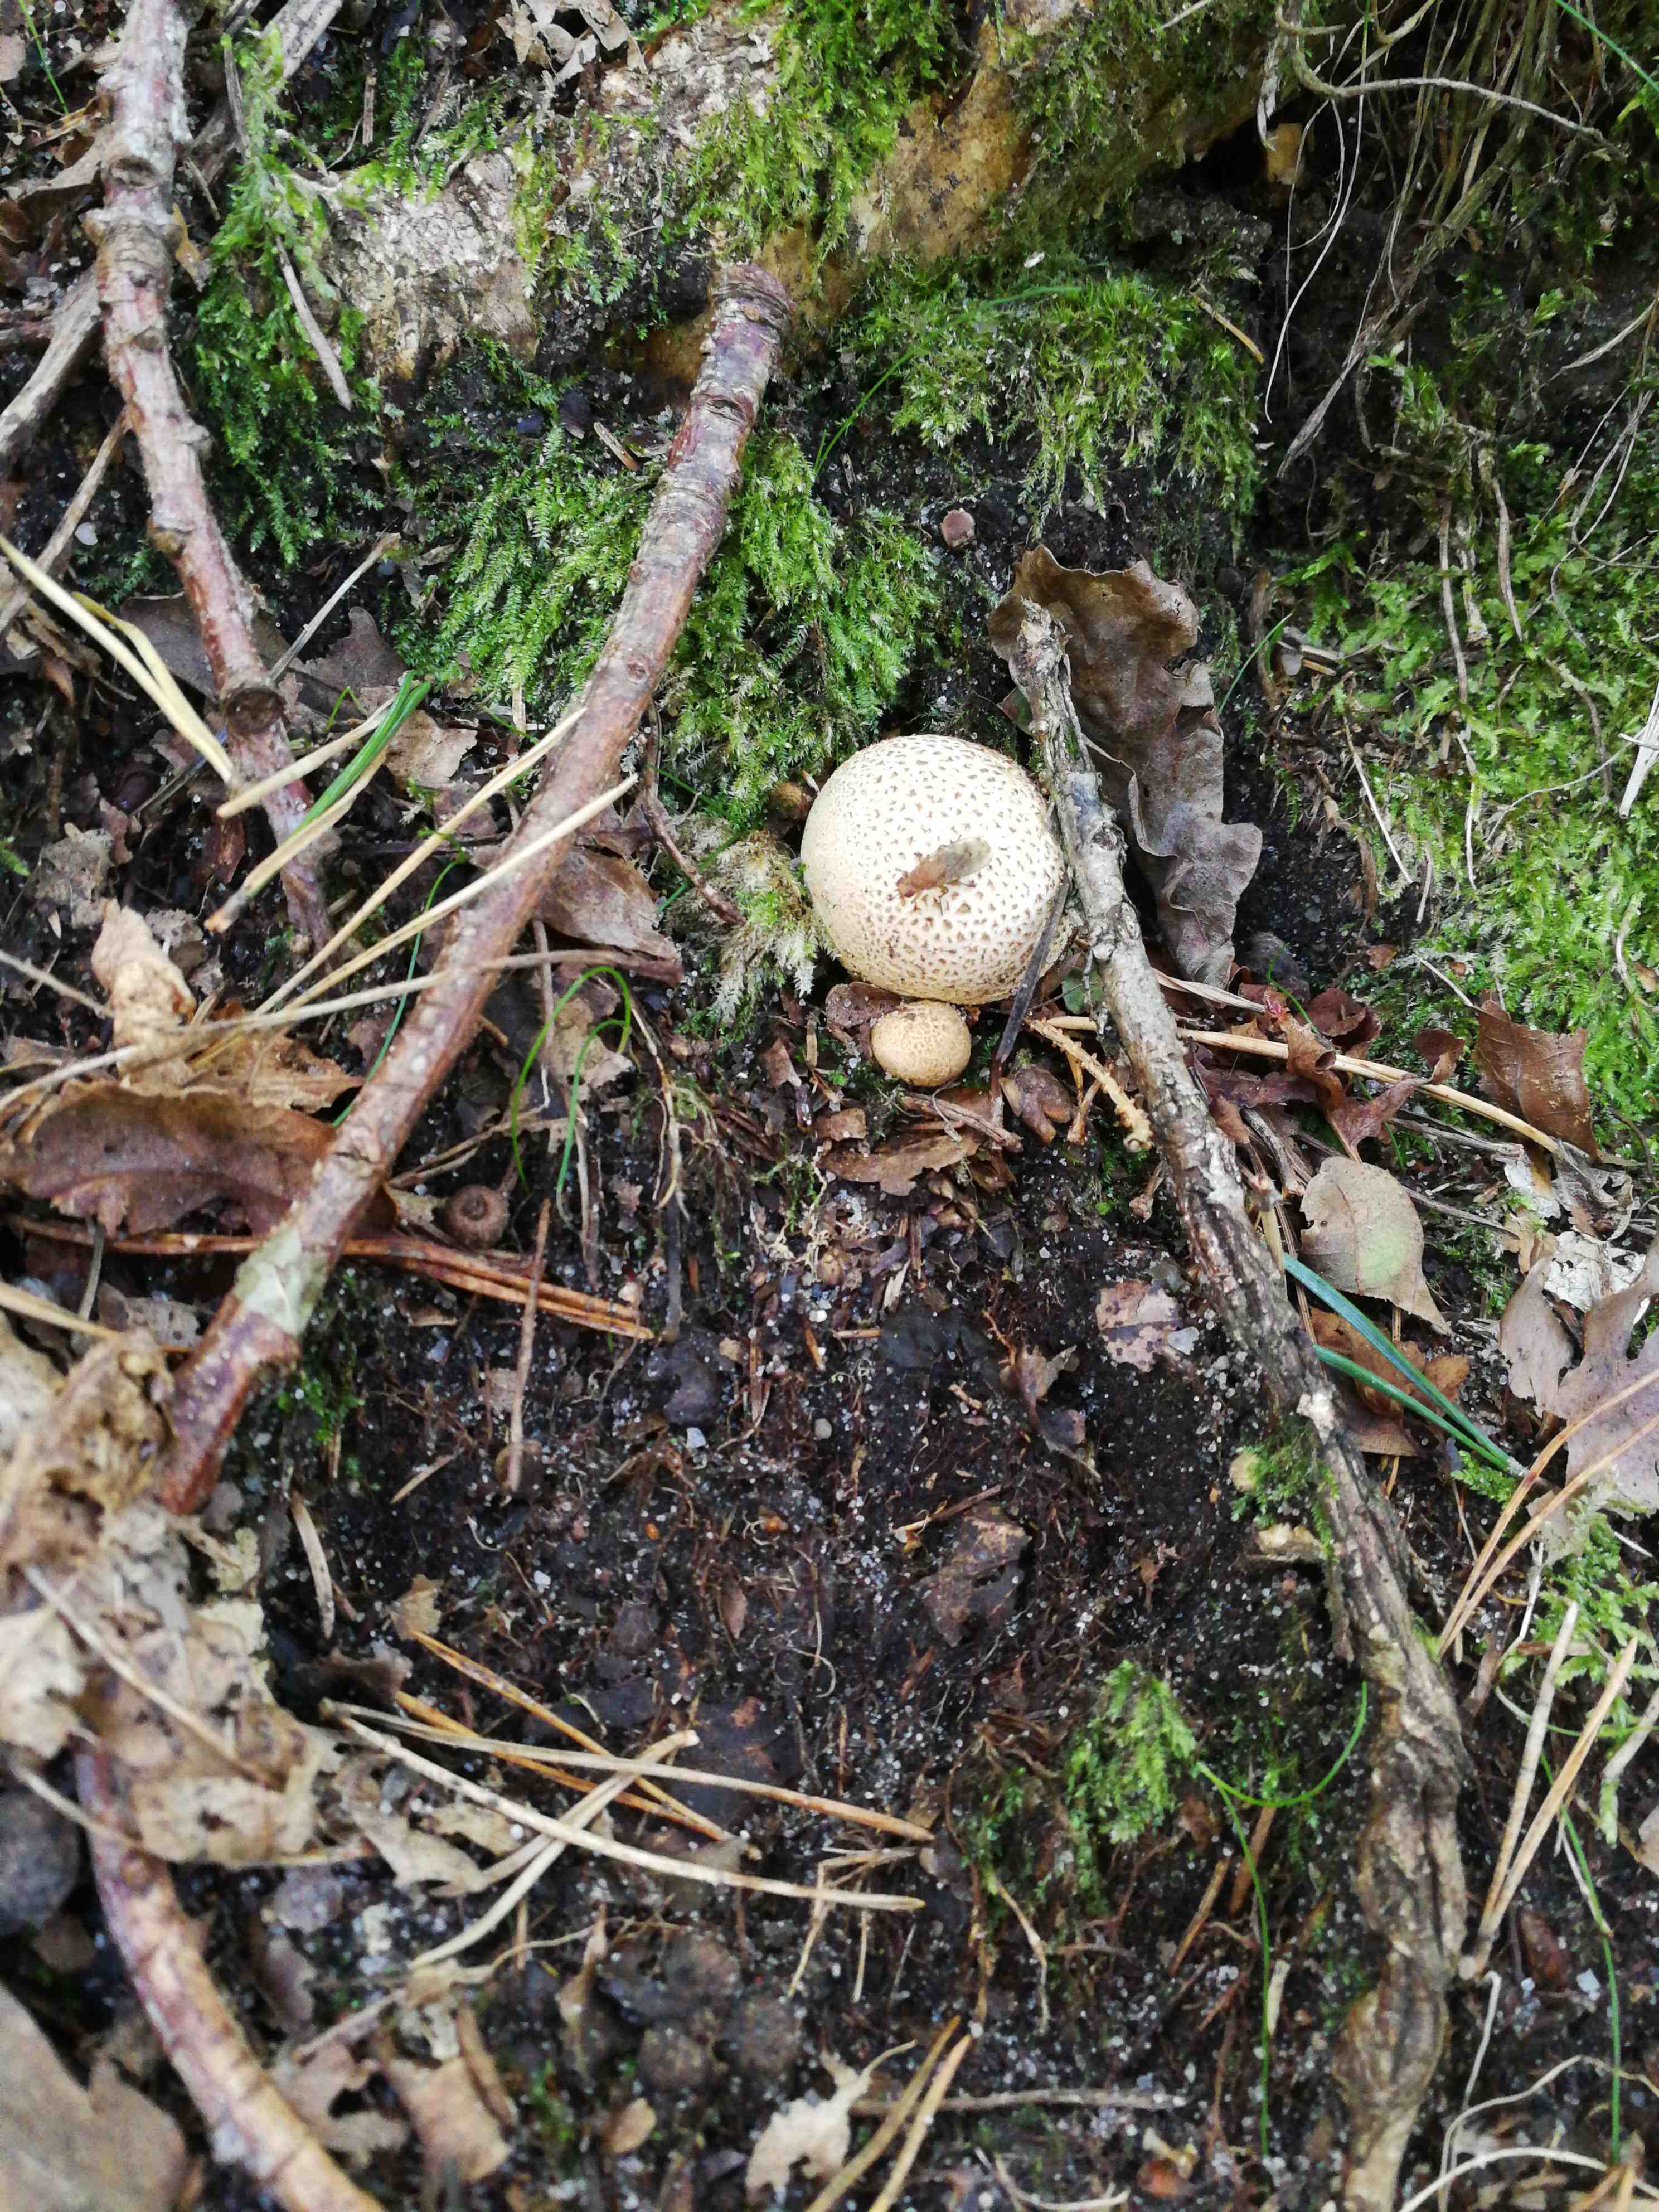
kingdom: Fungi
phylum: Basidiomycota
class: Agaricomycetes
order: Boletales
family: Sclerodermataceae
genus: Scleroderma
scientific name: Scleroderma citrinum
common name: almindelig bruskbold
